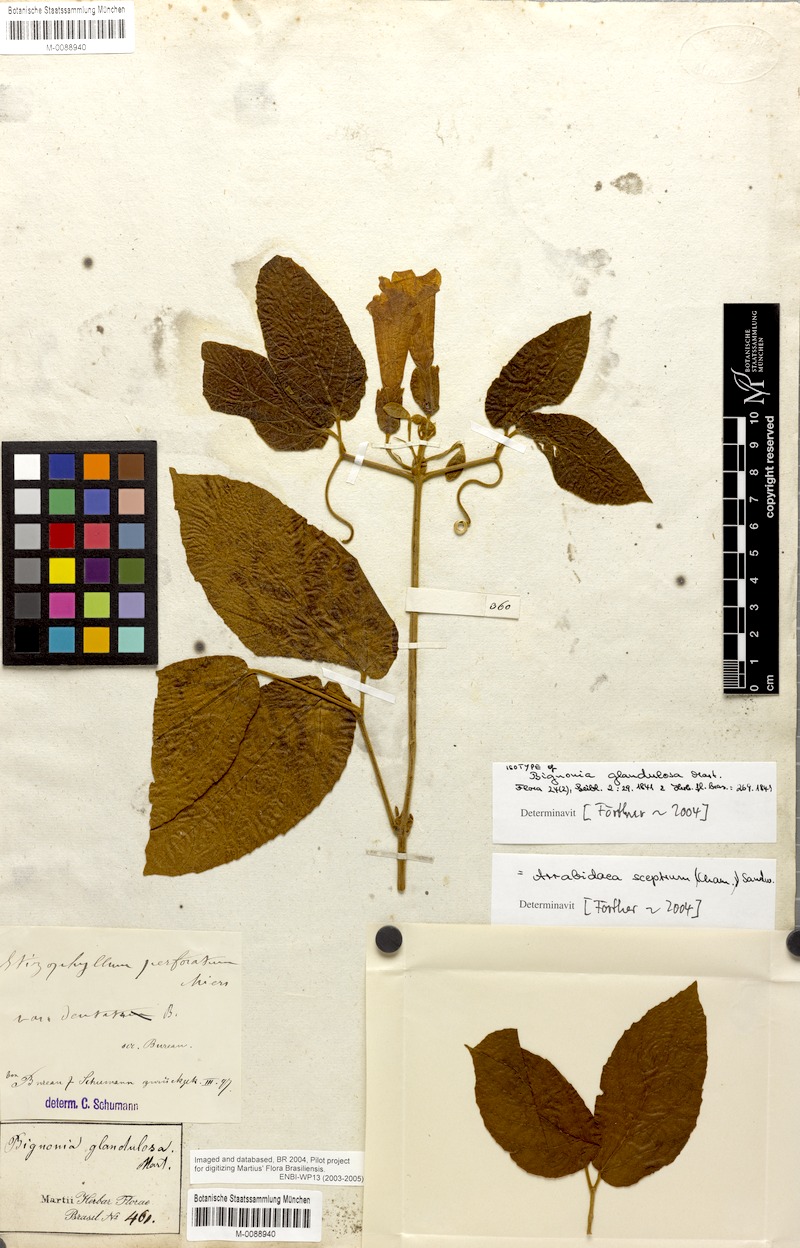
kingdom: Plantae
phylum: Tracheophyta
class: Magnoliopsida
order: Lamiales
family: Bignoniaceae
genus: Stizophyllum
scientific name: Stizophyllum perforatum
